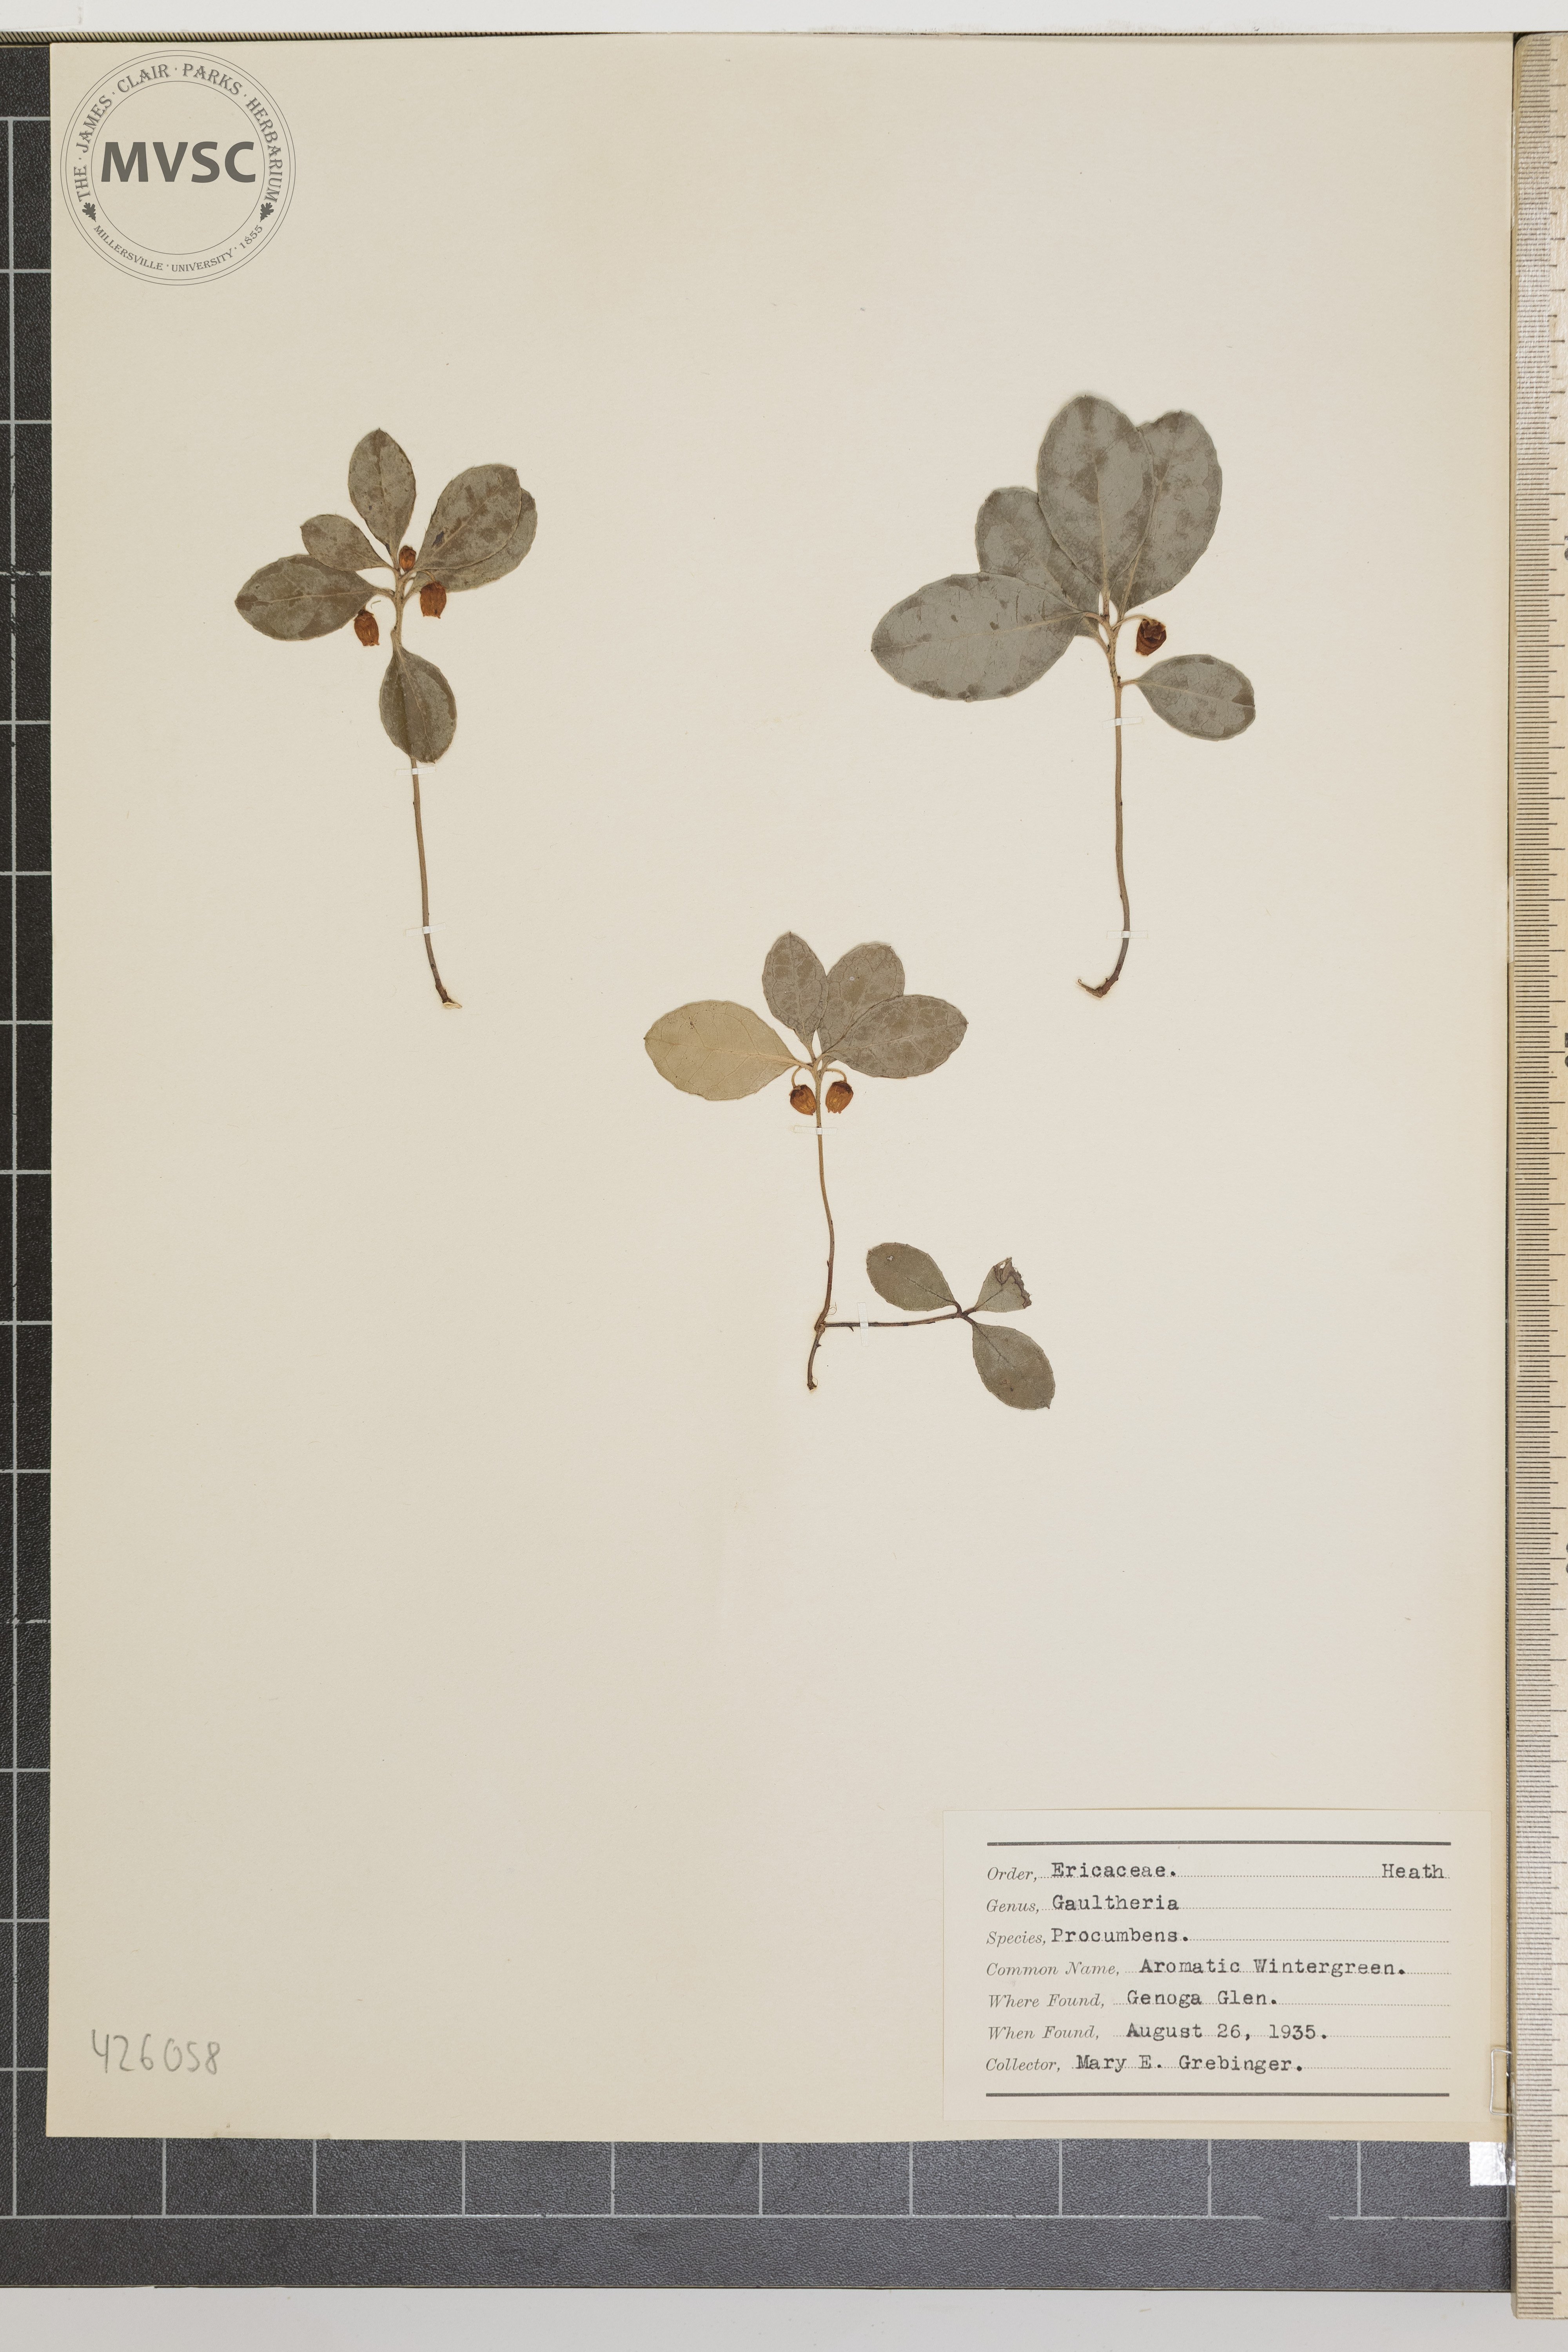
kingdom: Plantae
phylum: Tracheophyta
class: Magnoliopsida
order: Ericales
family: Ericaceae
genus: Gaultheria
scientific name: Gaultheria procumbens
